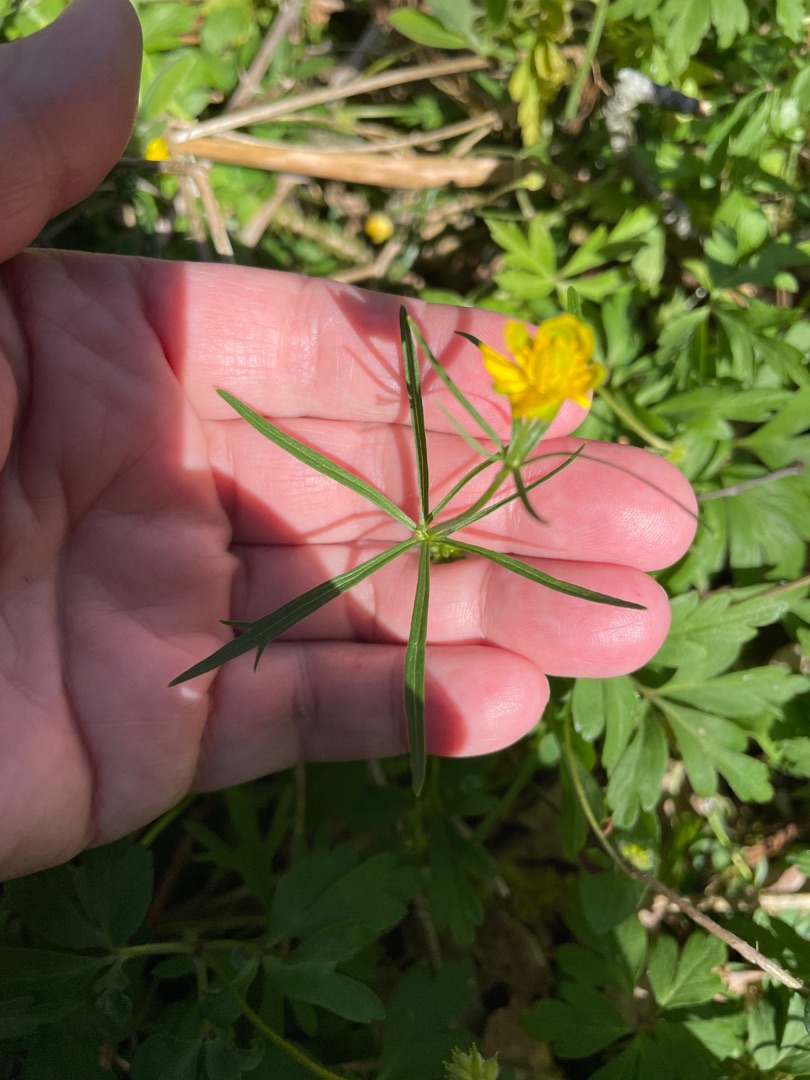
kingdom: Plantae
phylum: Tracheophyta
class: Magnoliopsida
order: Ranunculales
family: Ranunculaceae
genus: Ranunculus
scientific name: Ranunculus auricomus
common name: Nyrebladet ranunkel
